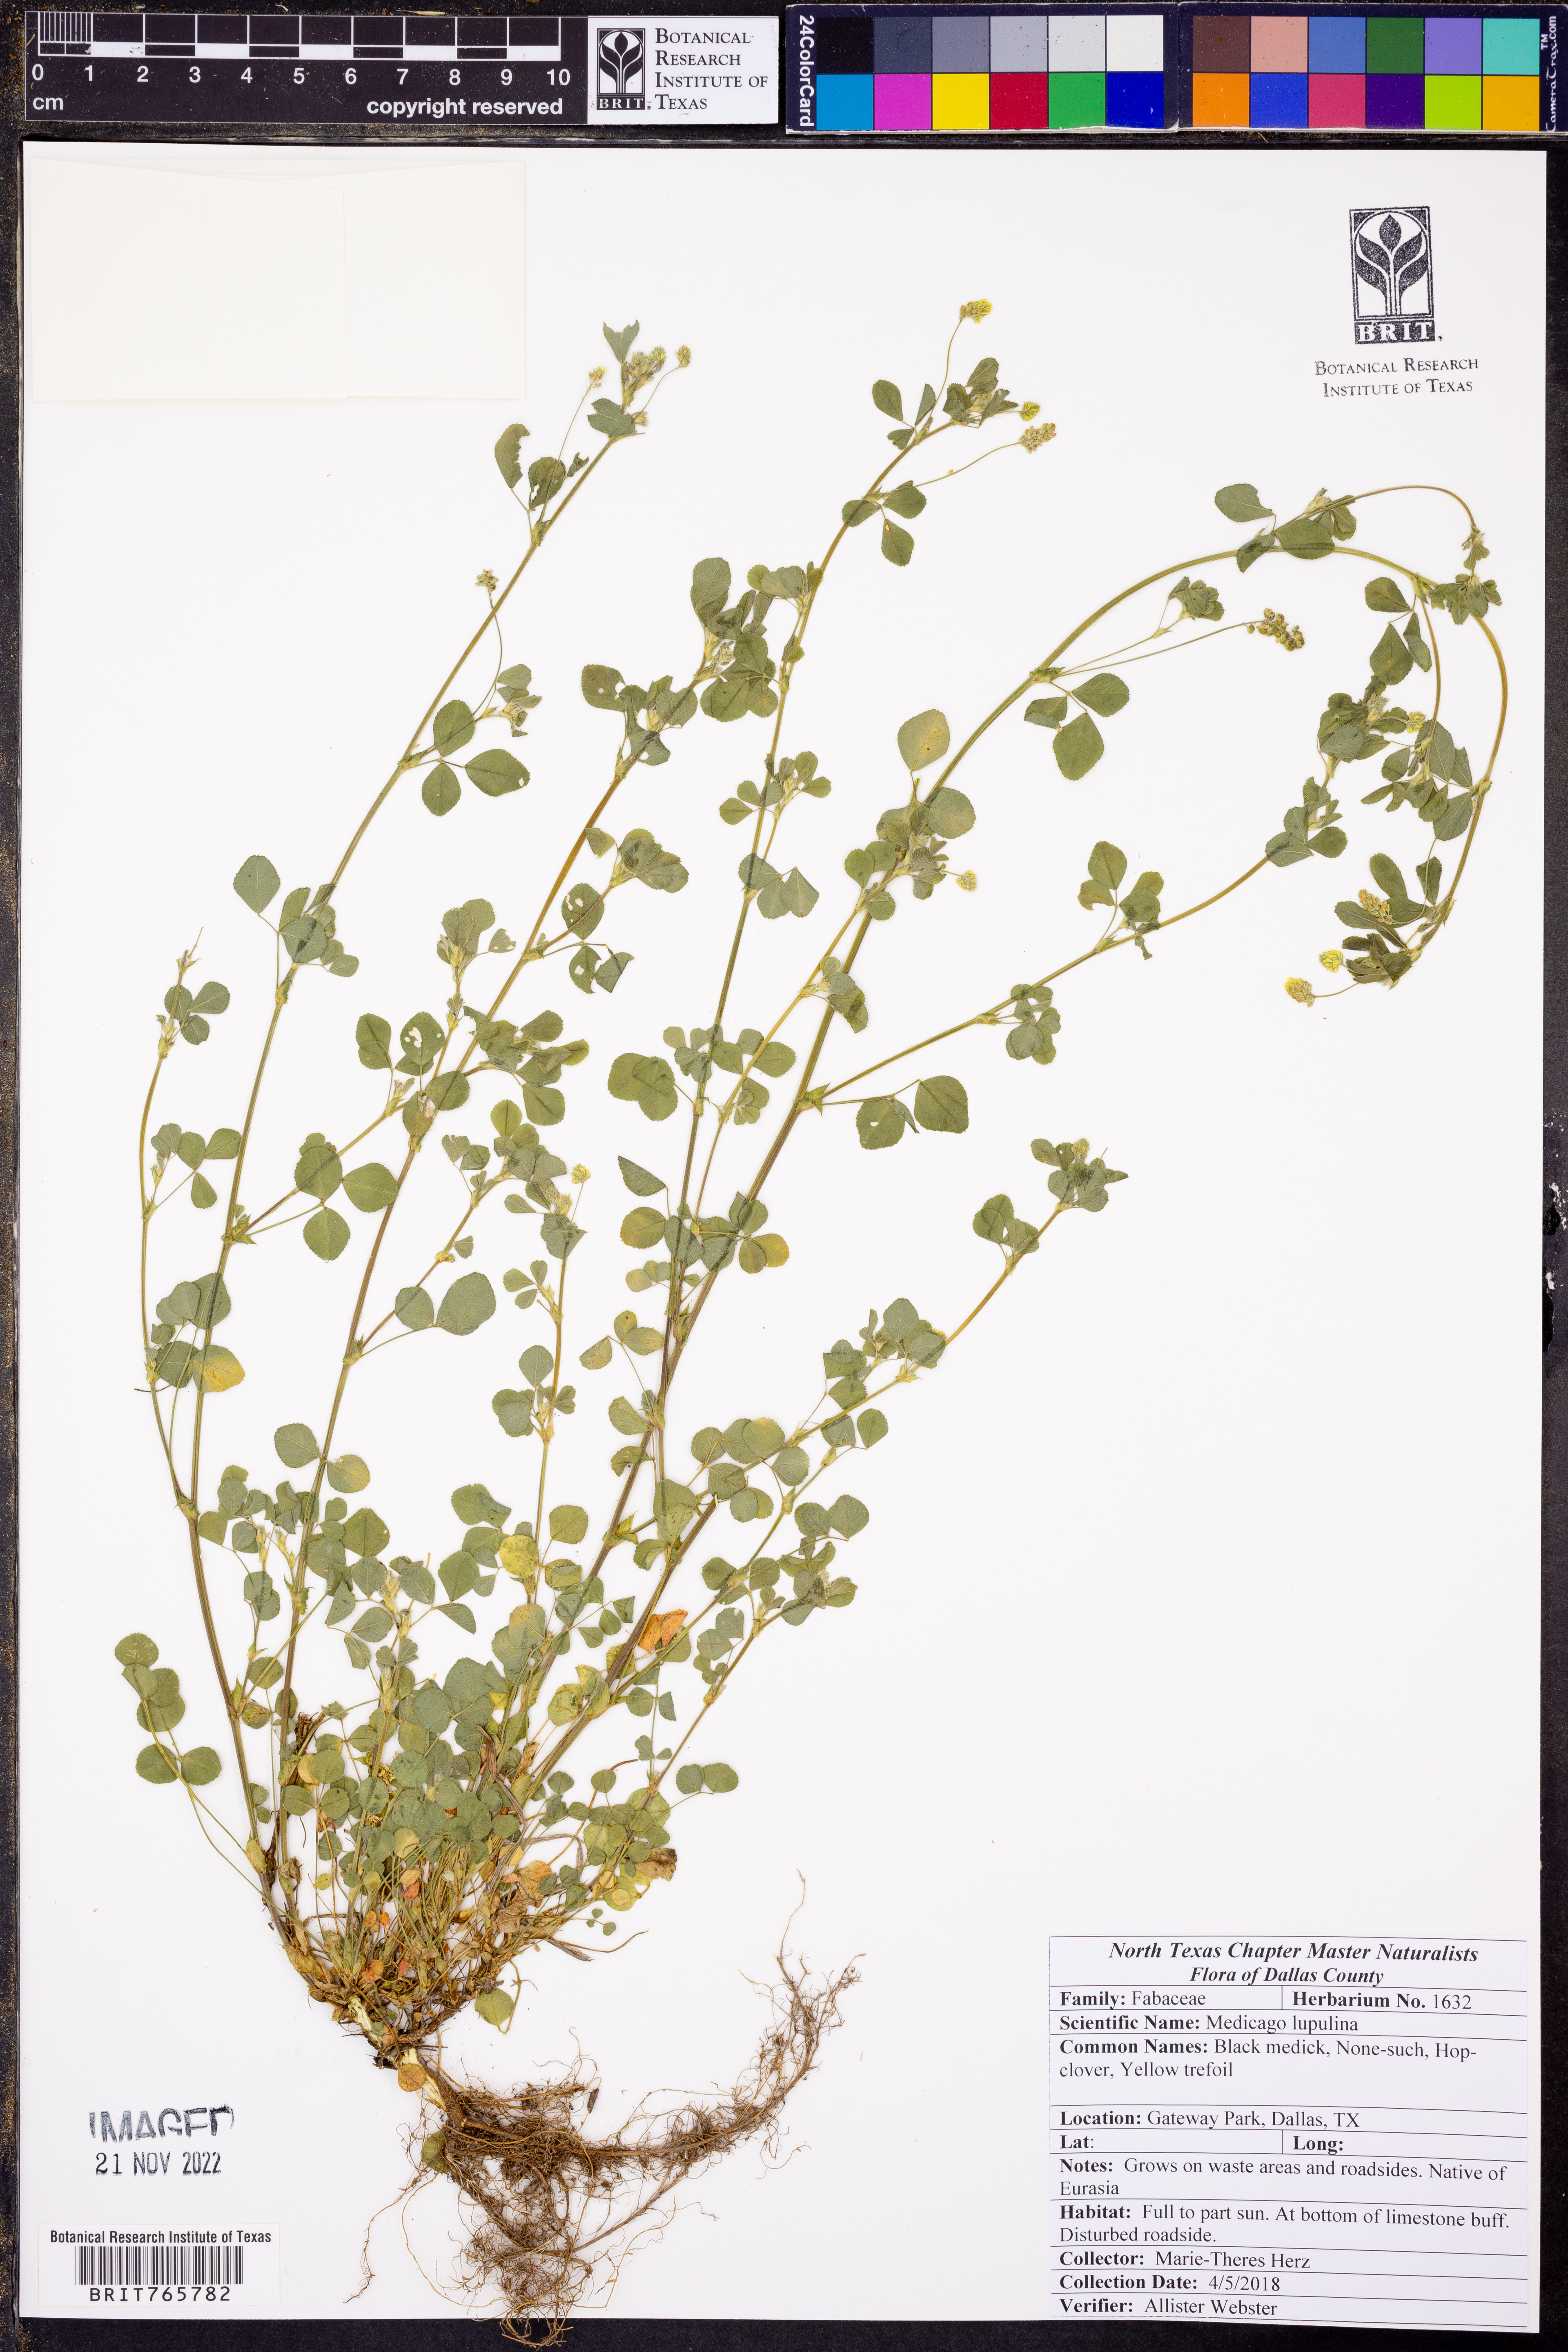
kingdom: Plantae
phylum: Tracheophyta
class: Magnoliopsida
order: Fabales
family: Fabaceae
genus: Medicago
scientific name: Medicago lupulina
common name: Black medick
